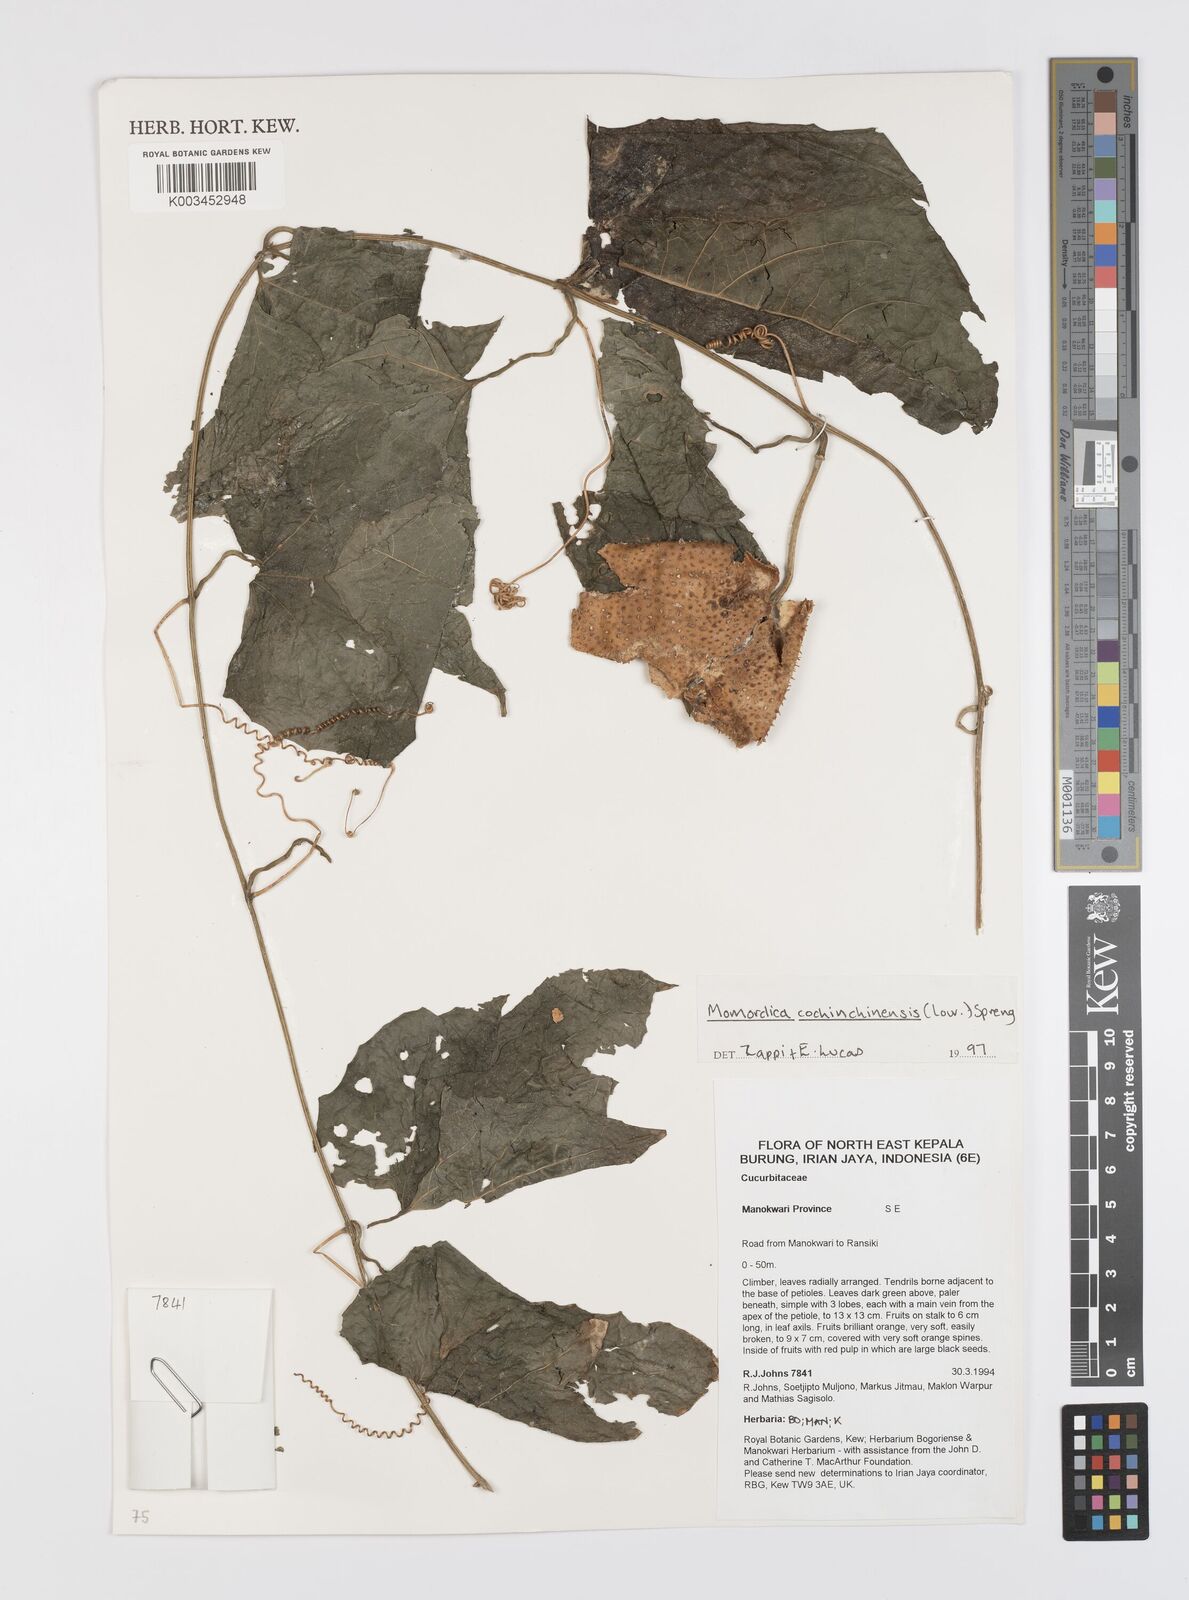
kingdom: Plantae
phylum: Tracheophyta
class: Magnoliopsida
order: Cucurbitales
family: Cucurbitaceae
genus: Momordica
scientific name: Momordica cochinchinensis
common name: Chinese bitter-cucumber
